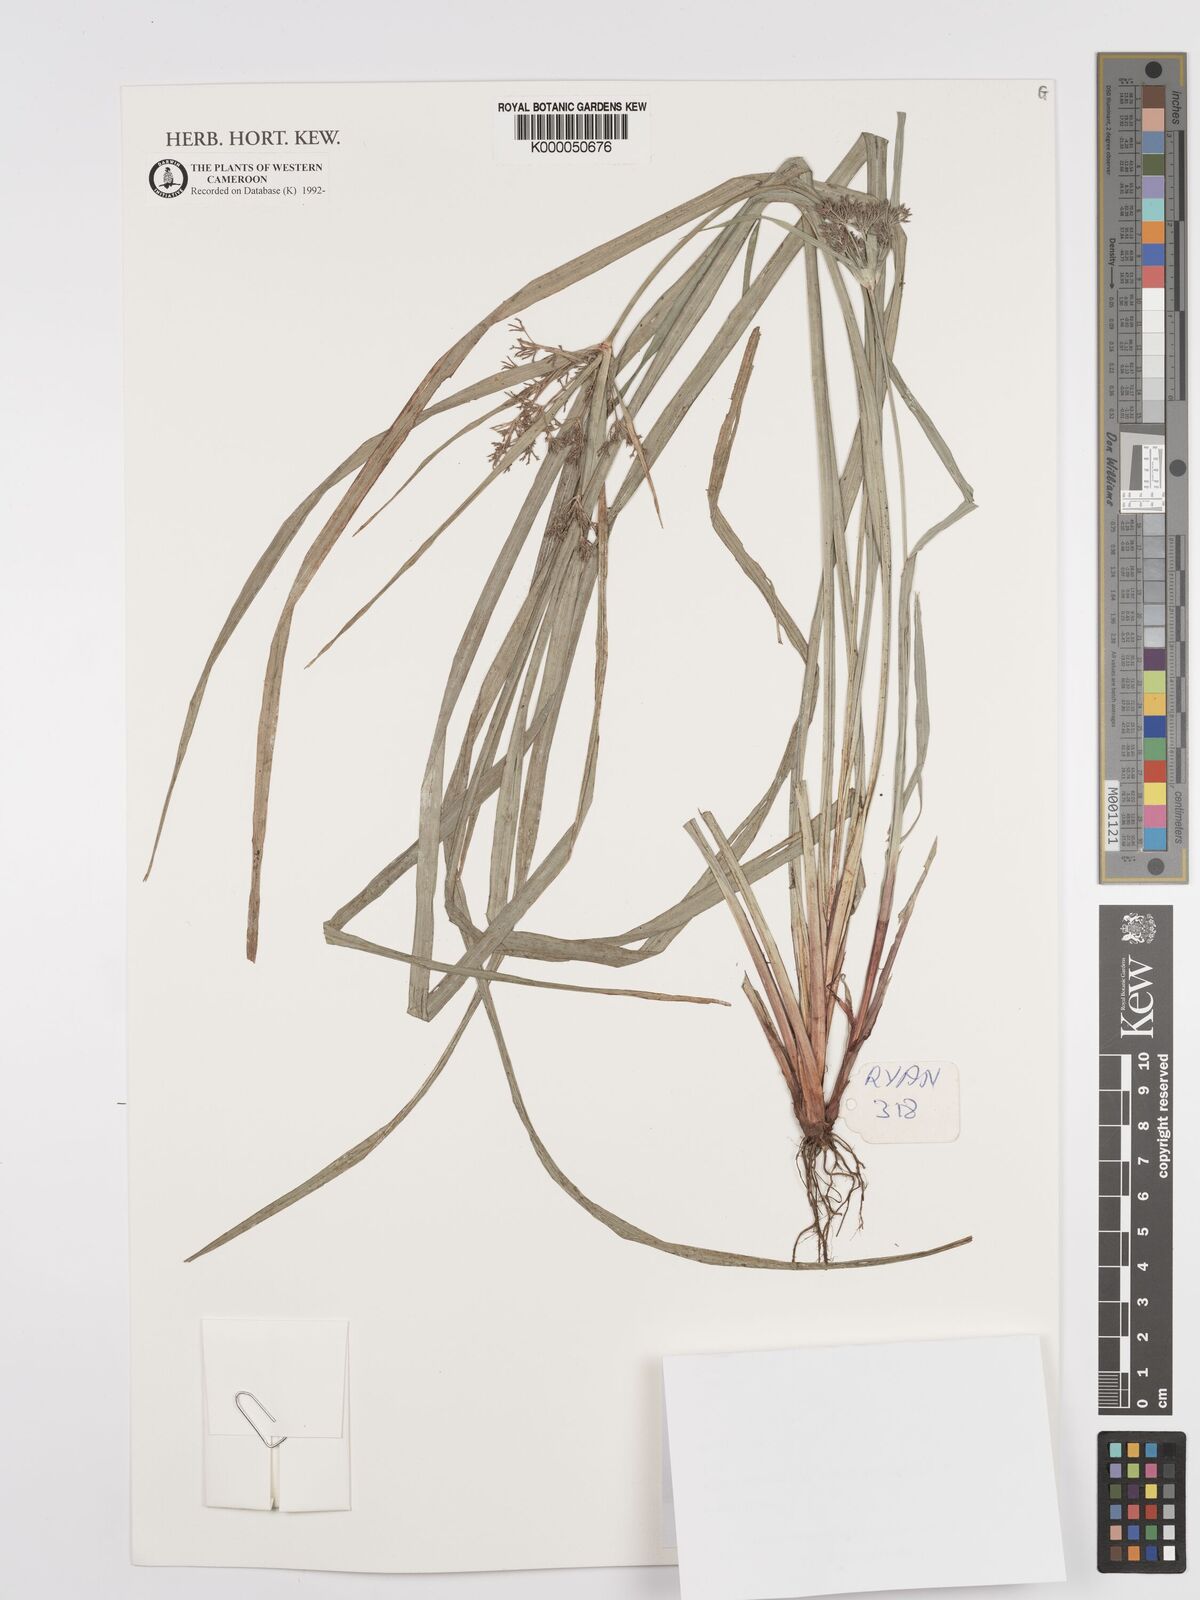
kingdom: Plantae
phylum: Tracheophyta
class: Liliopsida
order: Poales
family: Cyperaceae
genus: Cyperus
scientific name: Cyperus buchholzii
